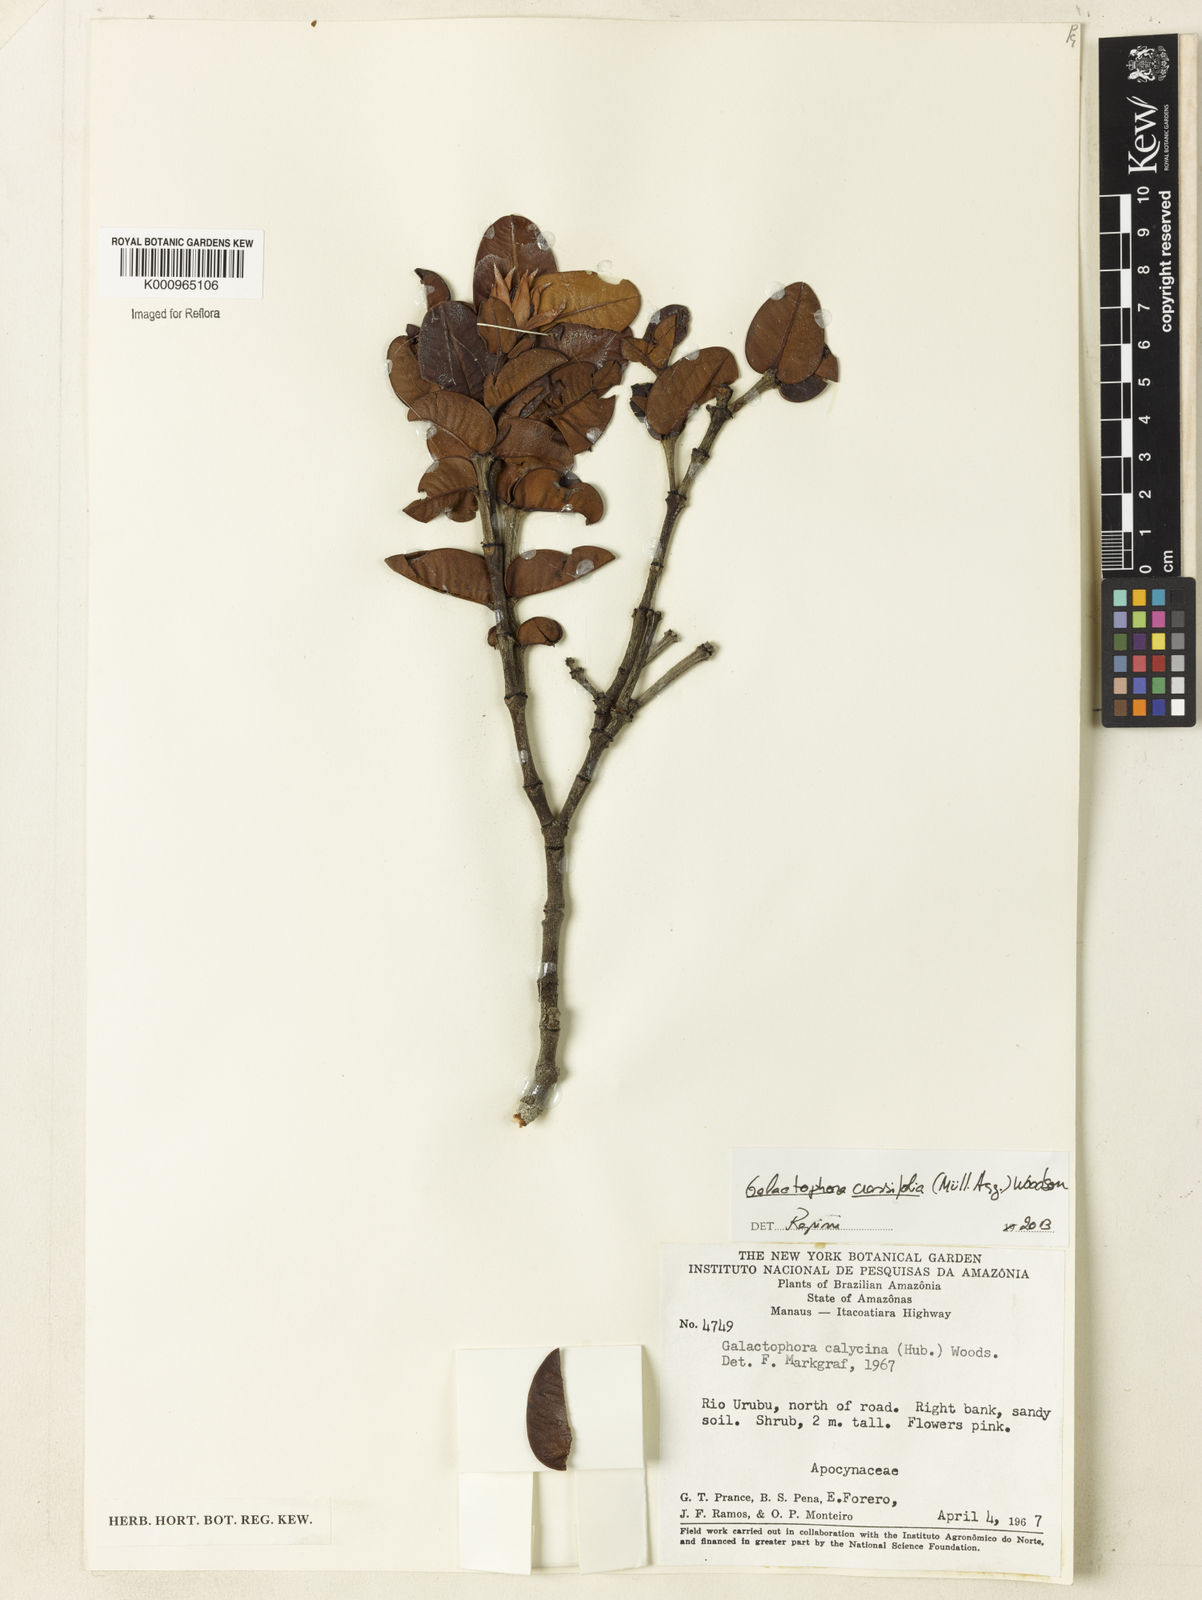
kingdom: Plantae
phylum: Tracheophyta
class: Magnoliopsida
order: Gentianales
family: Apocynaceae
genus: Galactophora
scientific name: Galactophora
